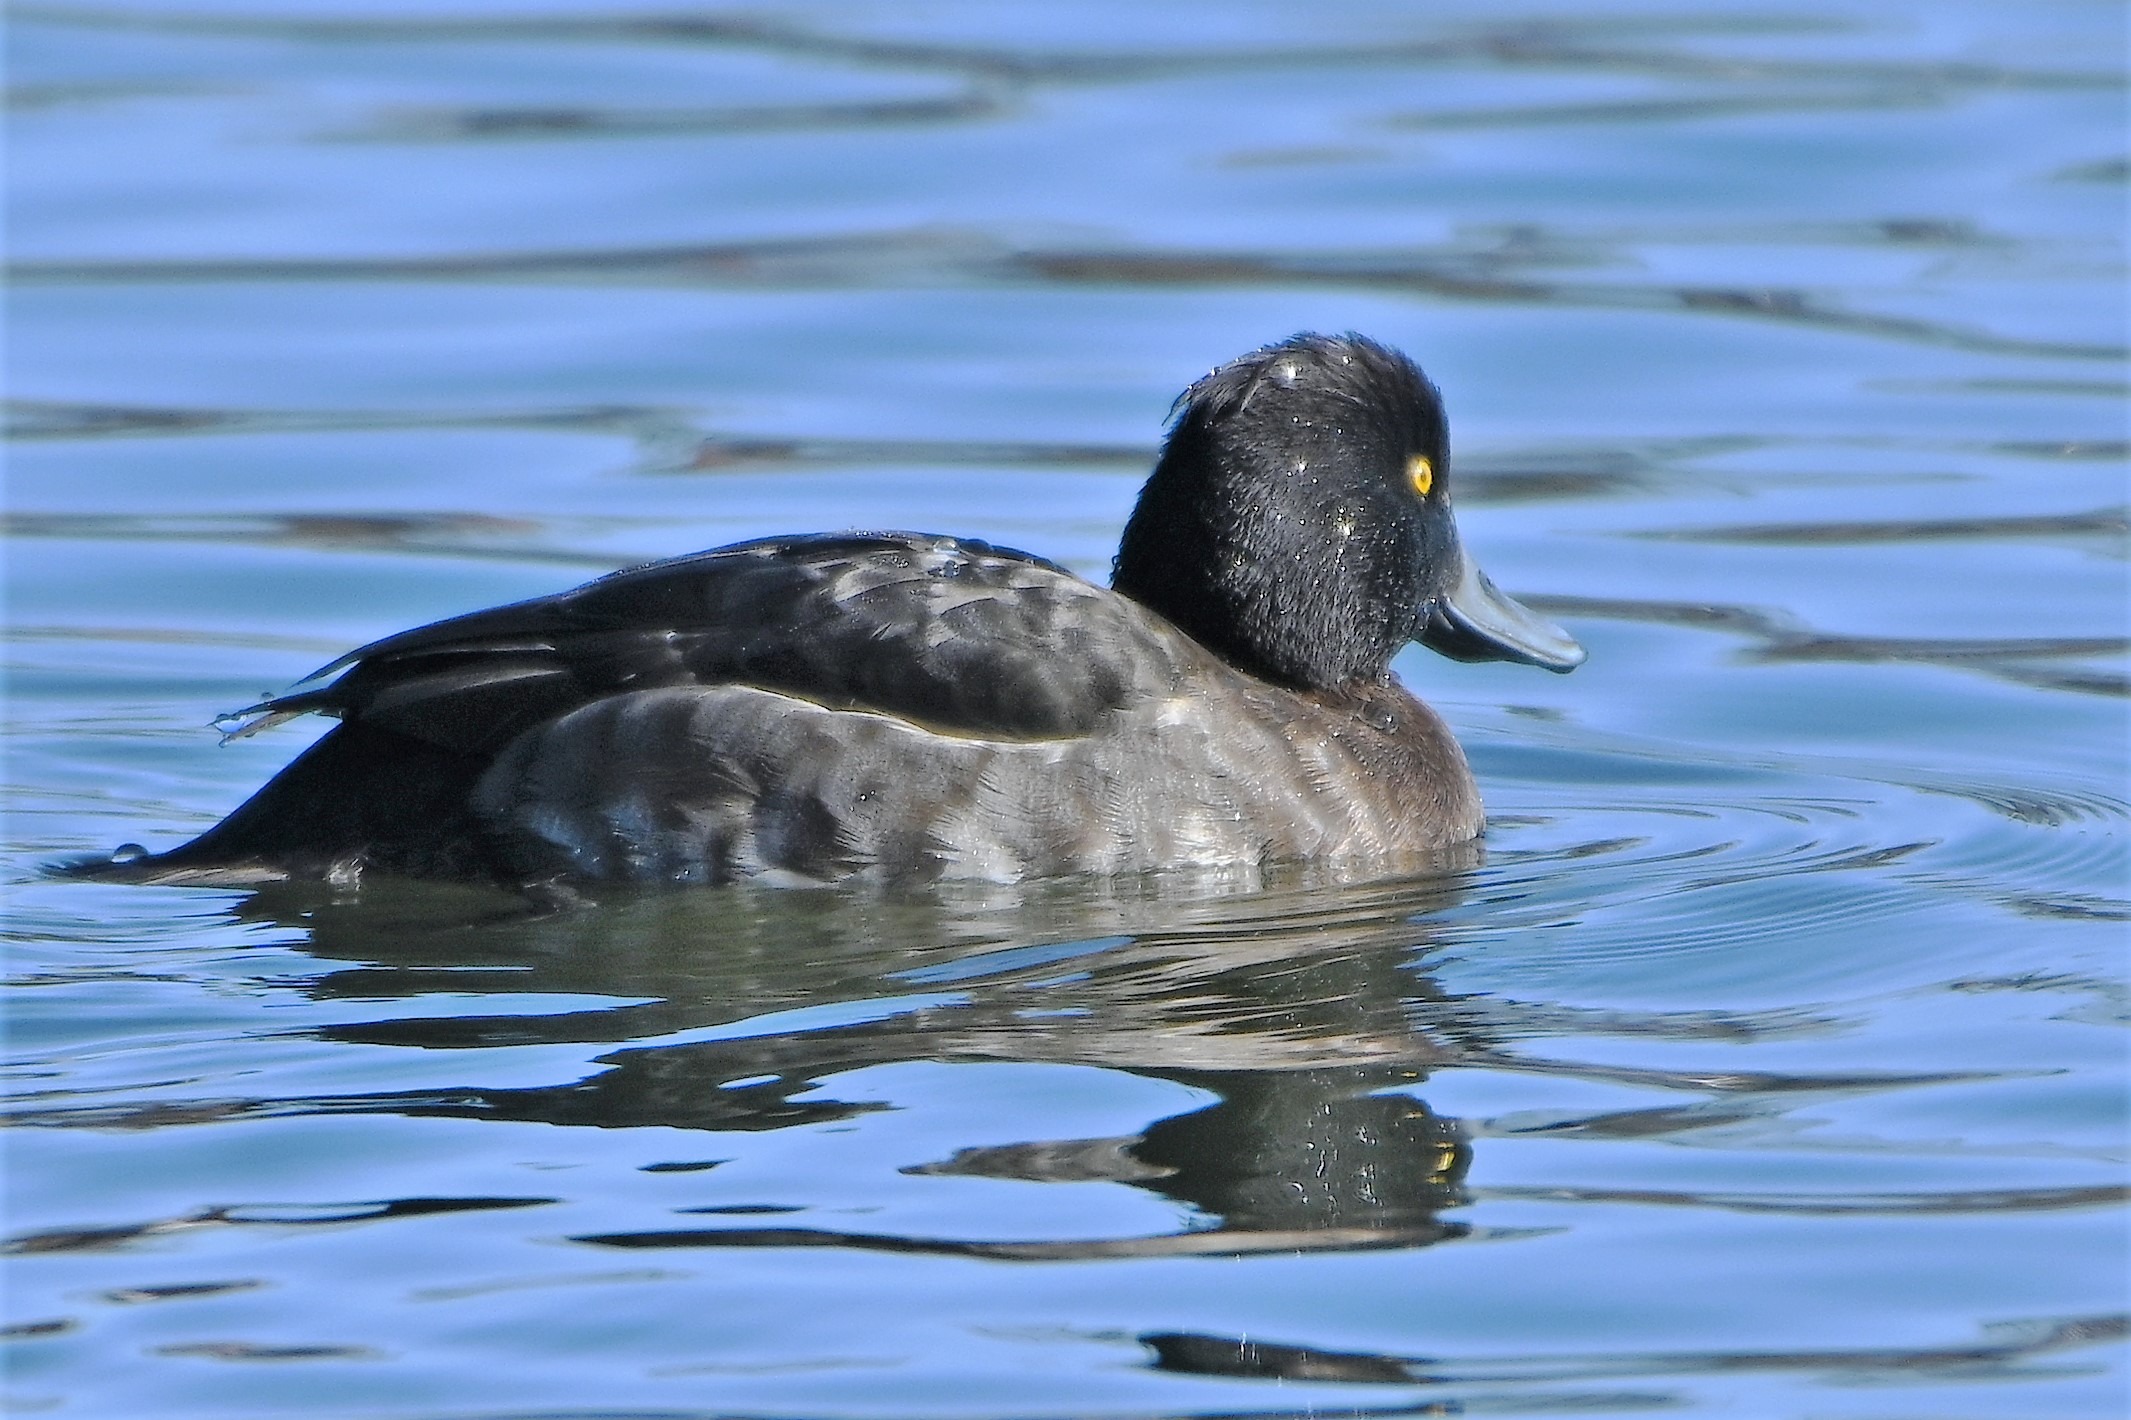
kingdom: Animalia
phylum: Chordata
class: Aves
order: Anseriformes
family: Anatidae
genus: Aythya
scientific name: Aythya fuligula
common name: Troldand
